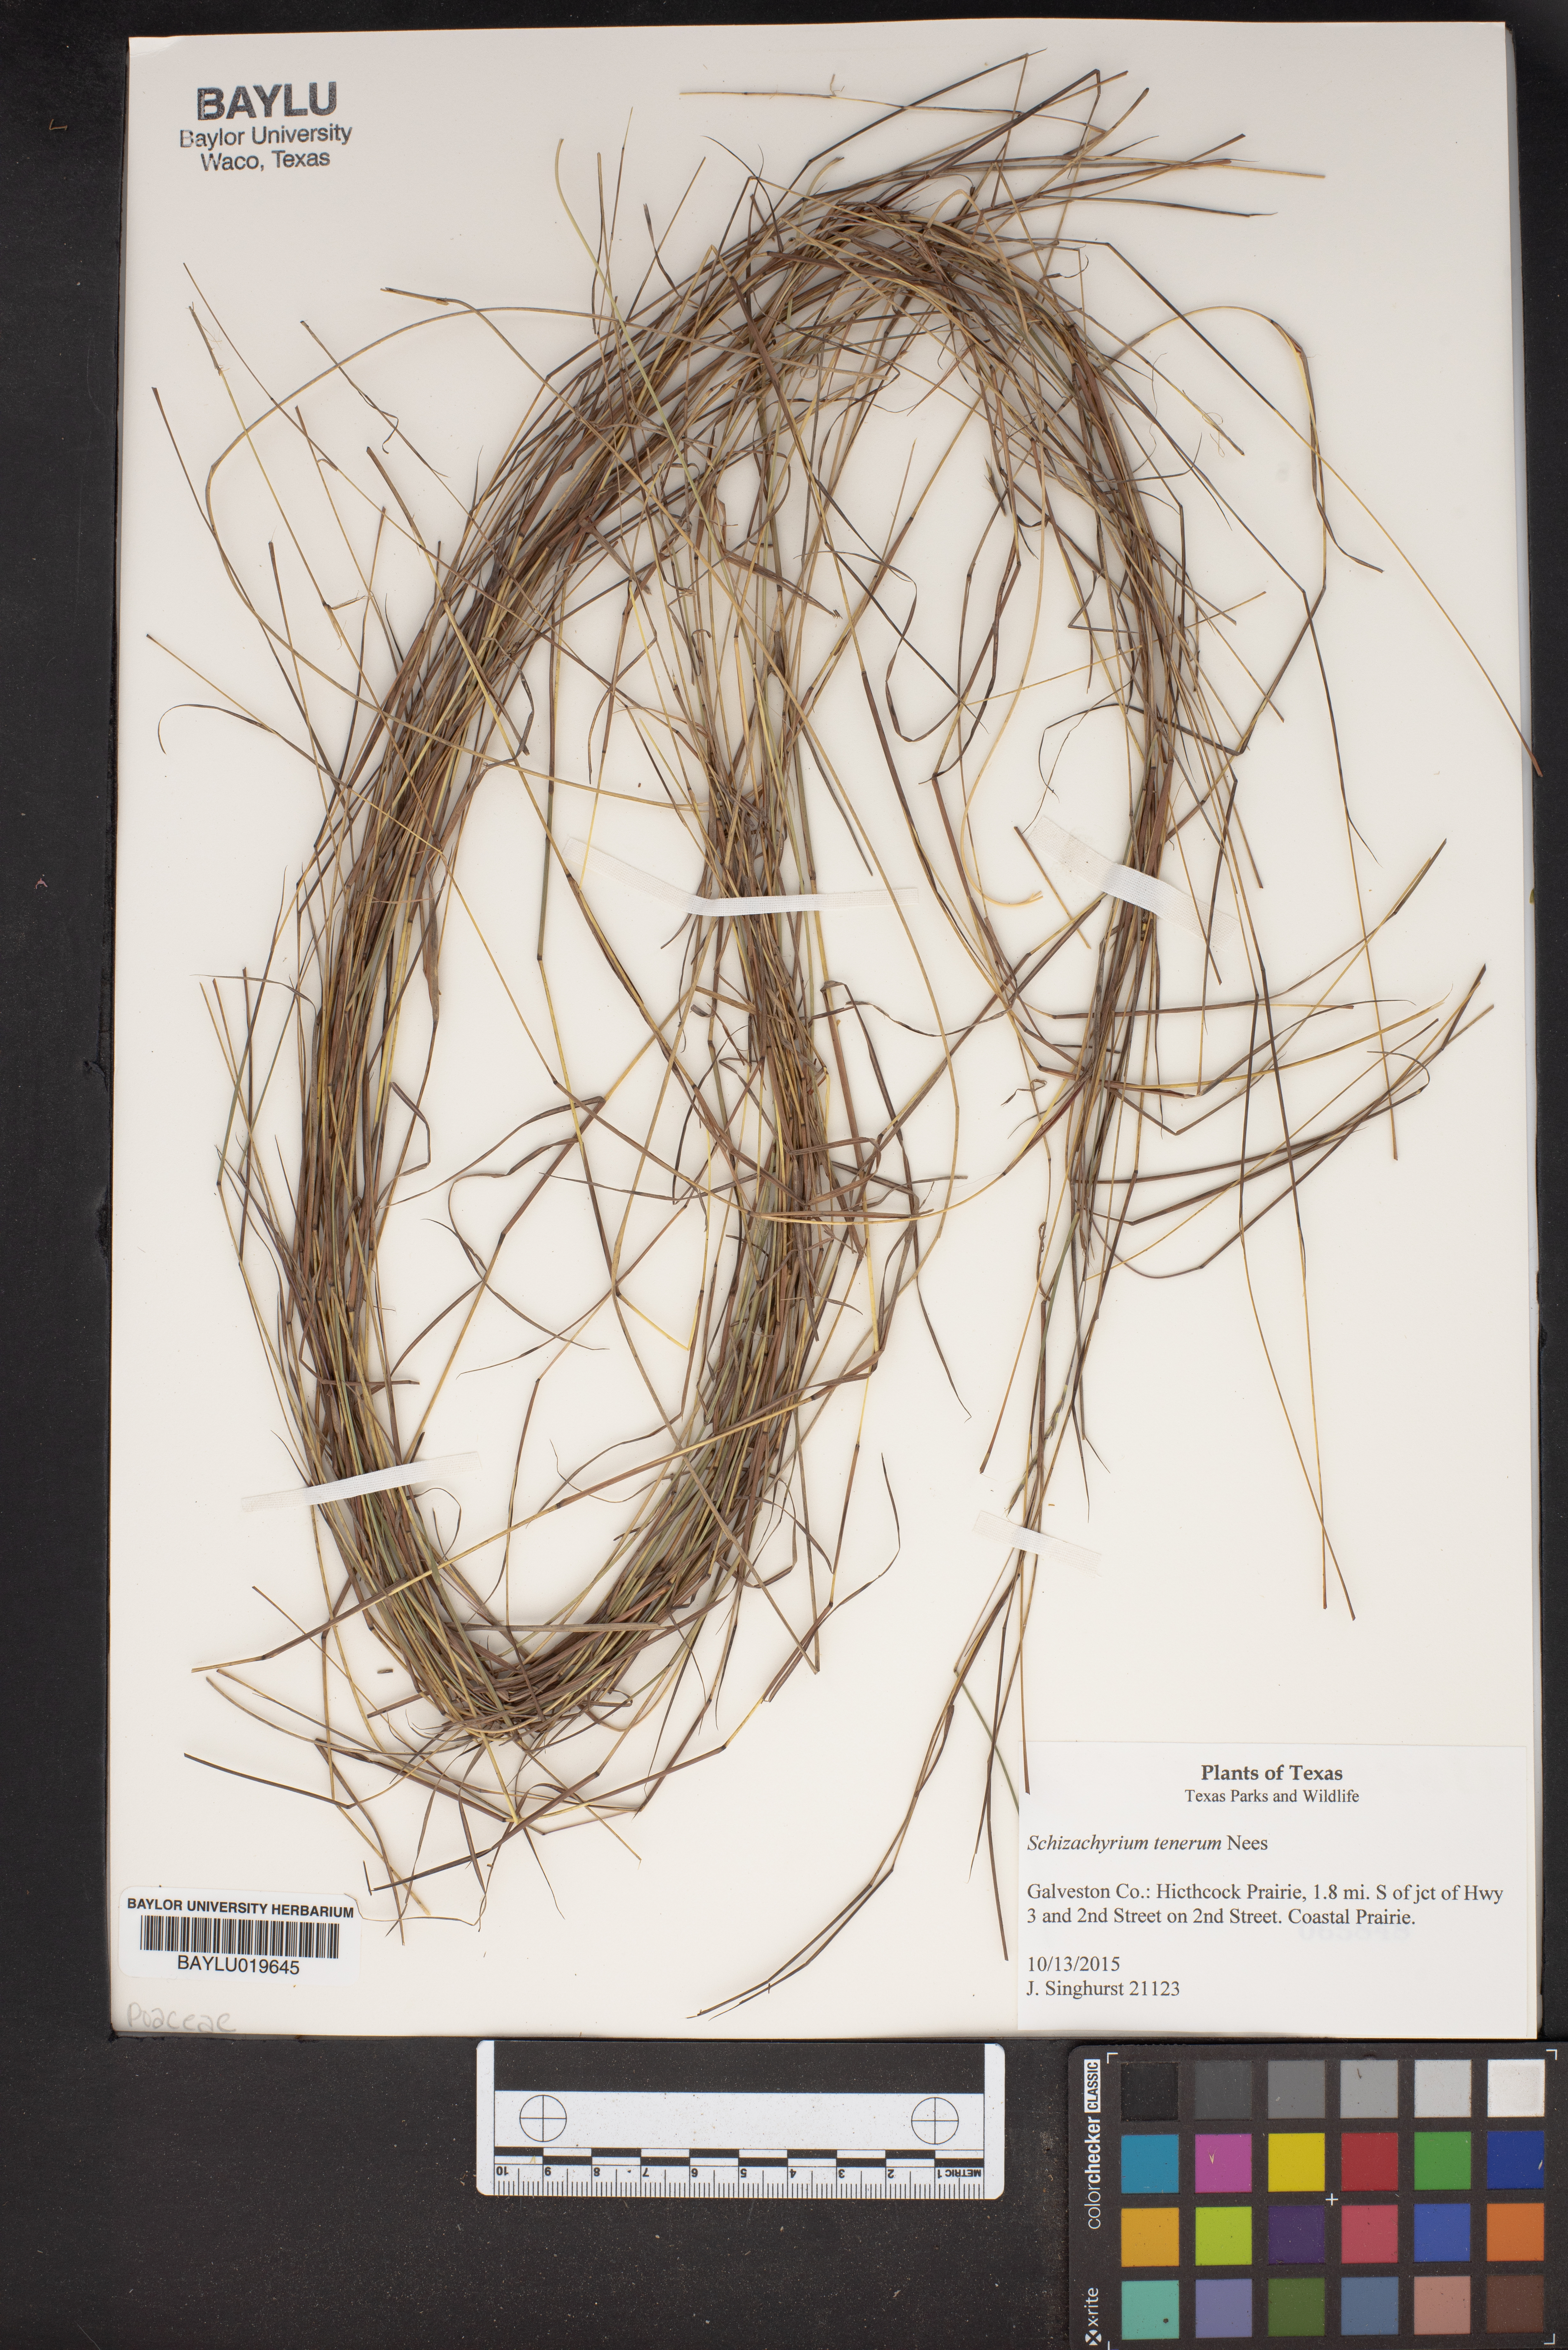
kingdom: Plantae
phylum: Tracheophyta
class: Liliopsida
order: Poales
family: Poaceae
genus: Andropogon
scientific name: Andropogon tener
